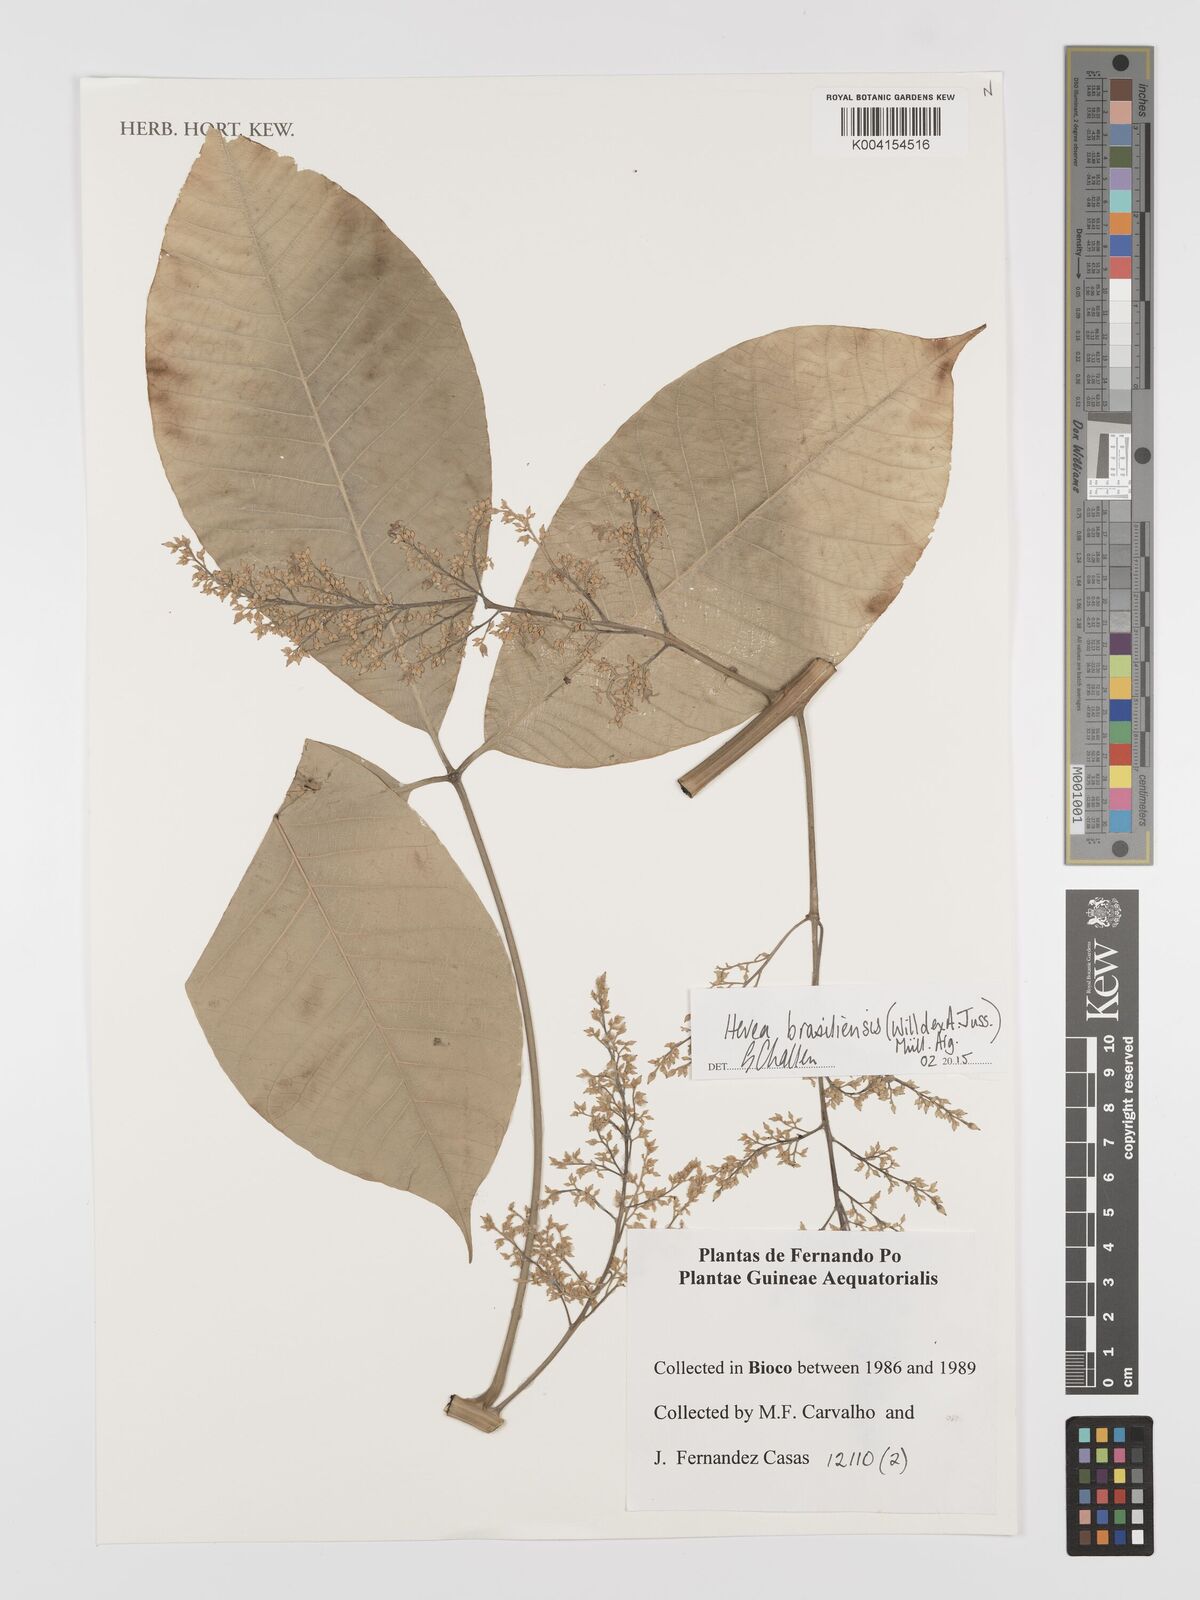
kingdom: Plantae
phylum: Tracheophyta
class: Magnoliopsida
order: Malpighiales
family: Euphorbiaceae
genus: Hevea
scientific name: Hevea brasiliensis
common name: Natural rubber
